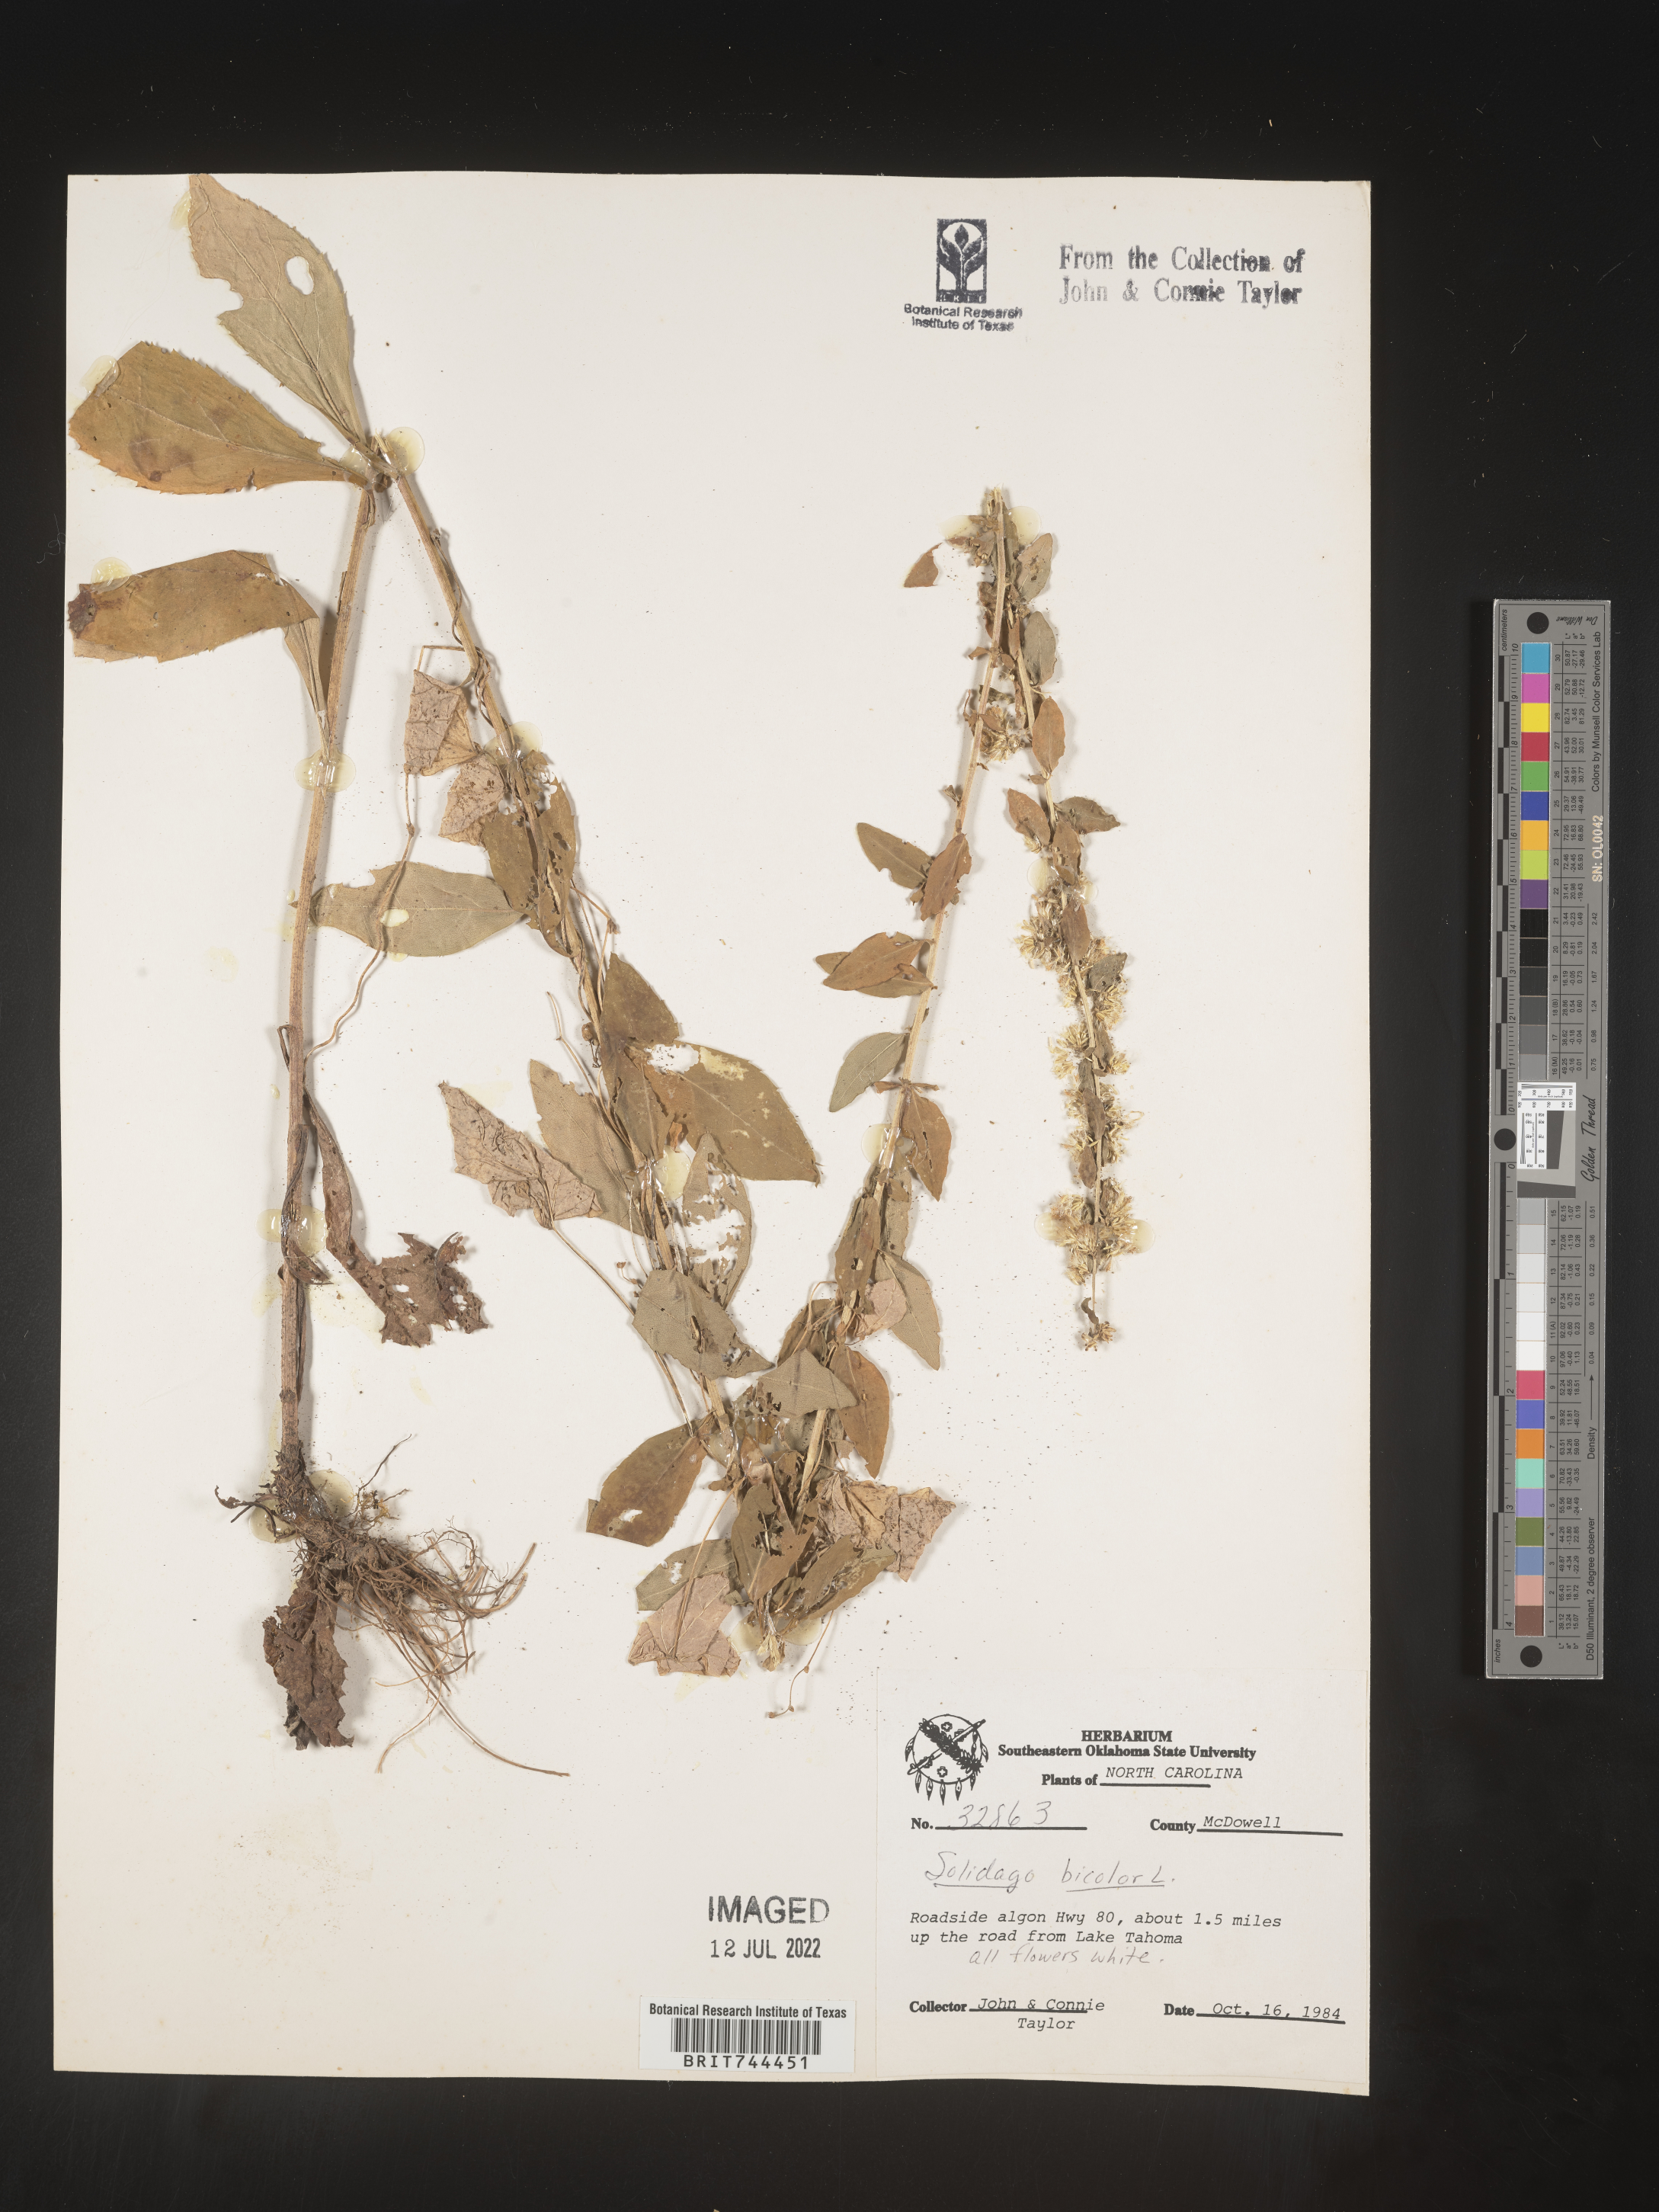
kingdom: Plantae
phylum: Tracheophyta
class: Magnoliopsida
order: Asterales
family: Asteraceae
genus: Solidago
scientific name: Solidago bicolor
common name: Silverrod
